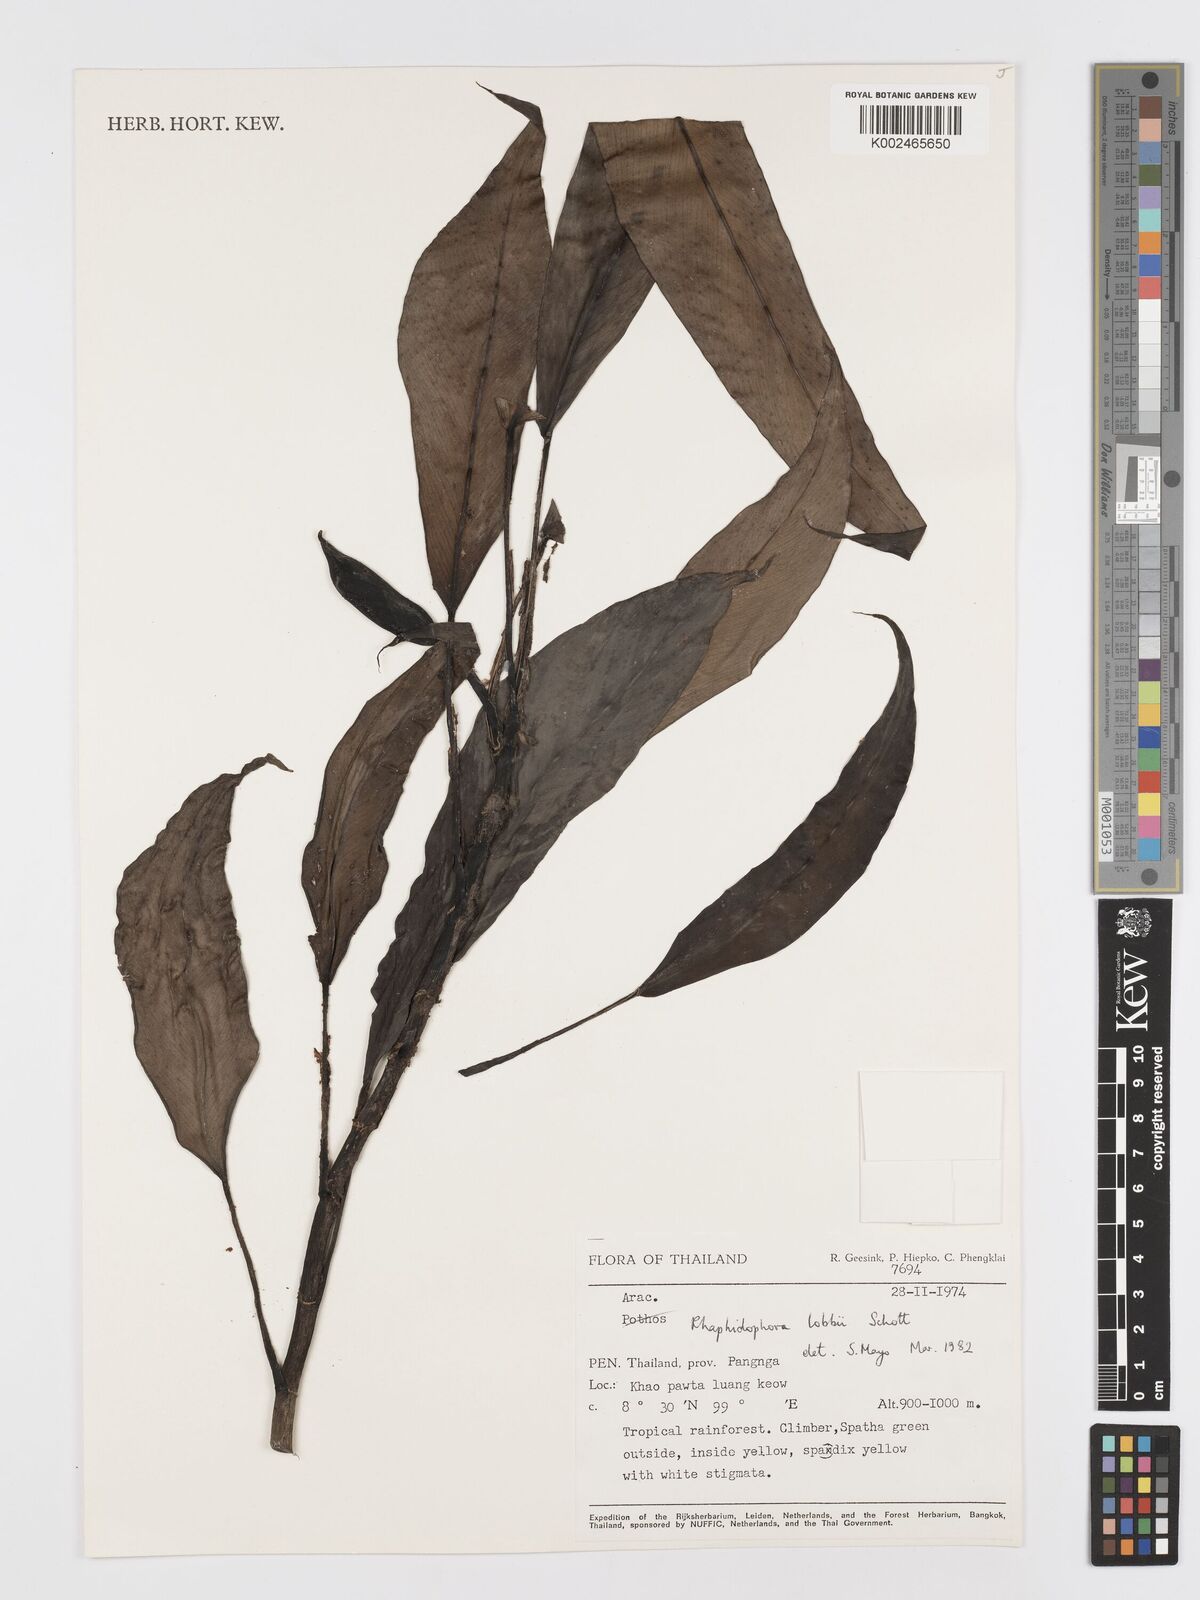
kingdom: Plantae
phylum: Tracheophyta
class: Liliopsida
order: Alismatales
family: Araceae
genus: Rhaphidophora
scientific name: Rhaphidophora sylvestris
